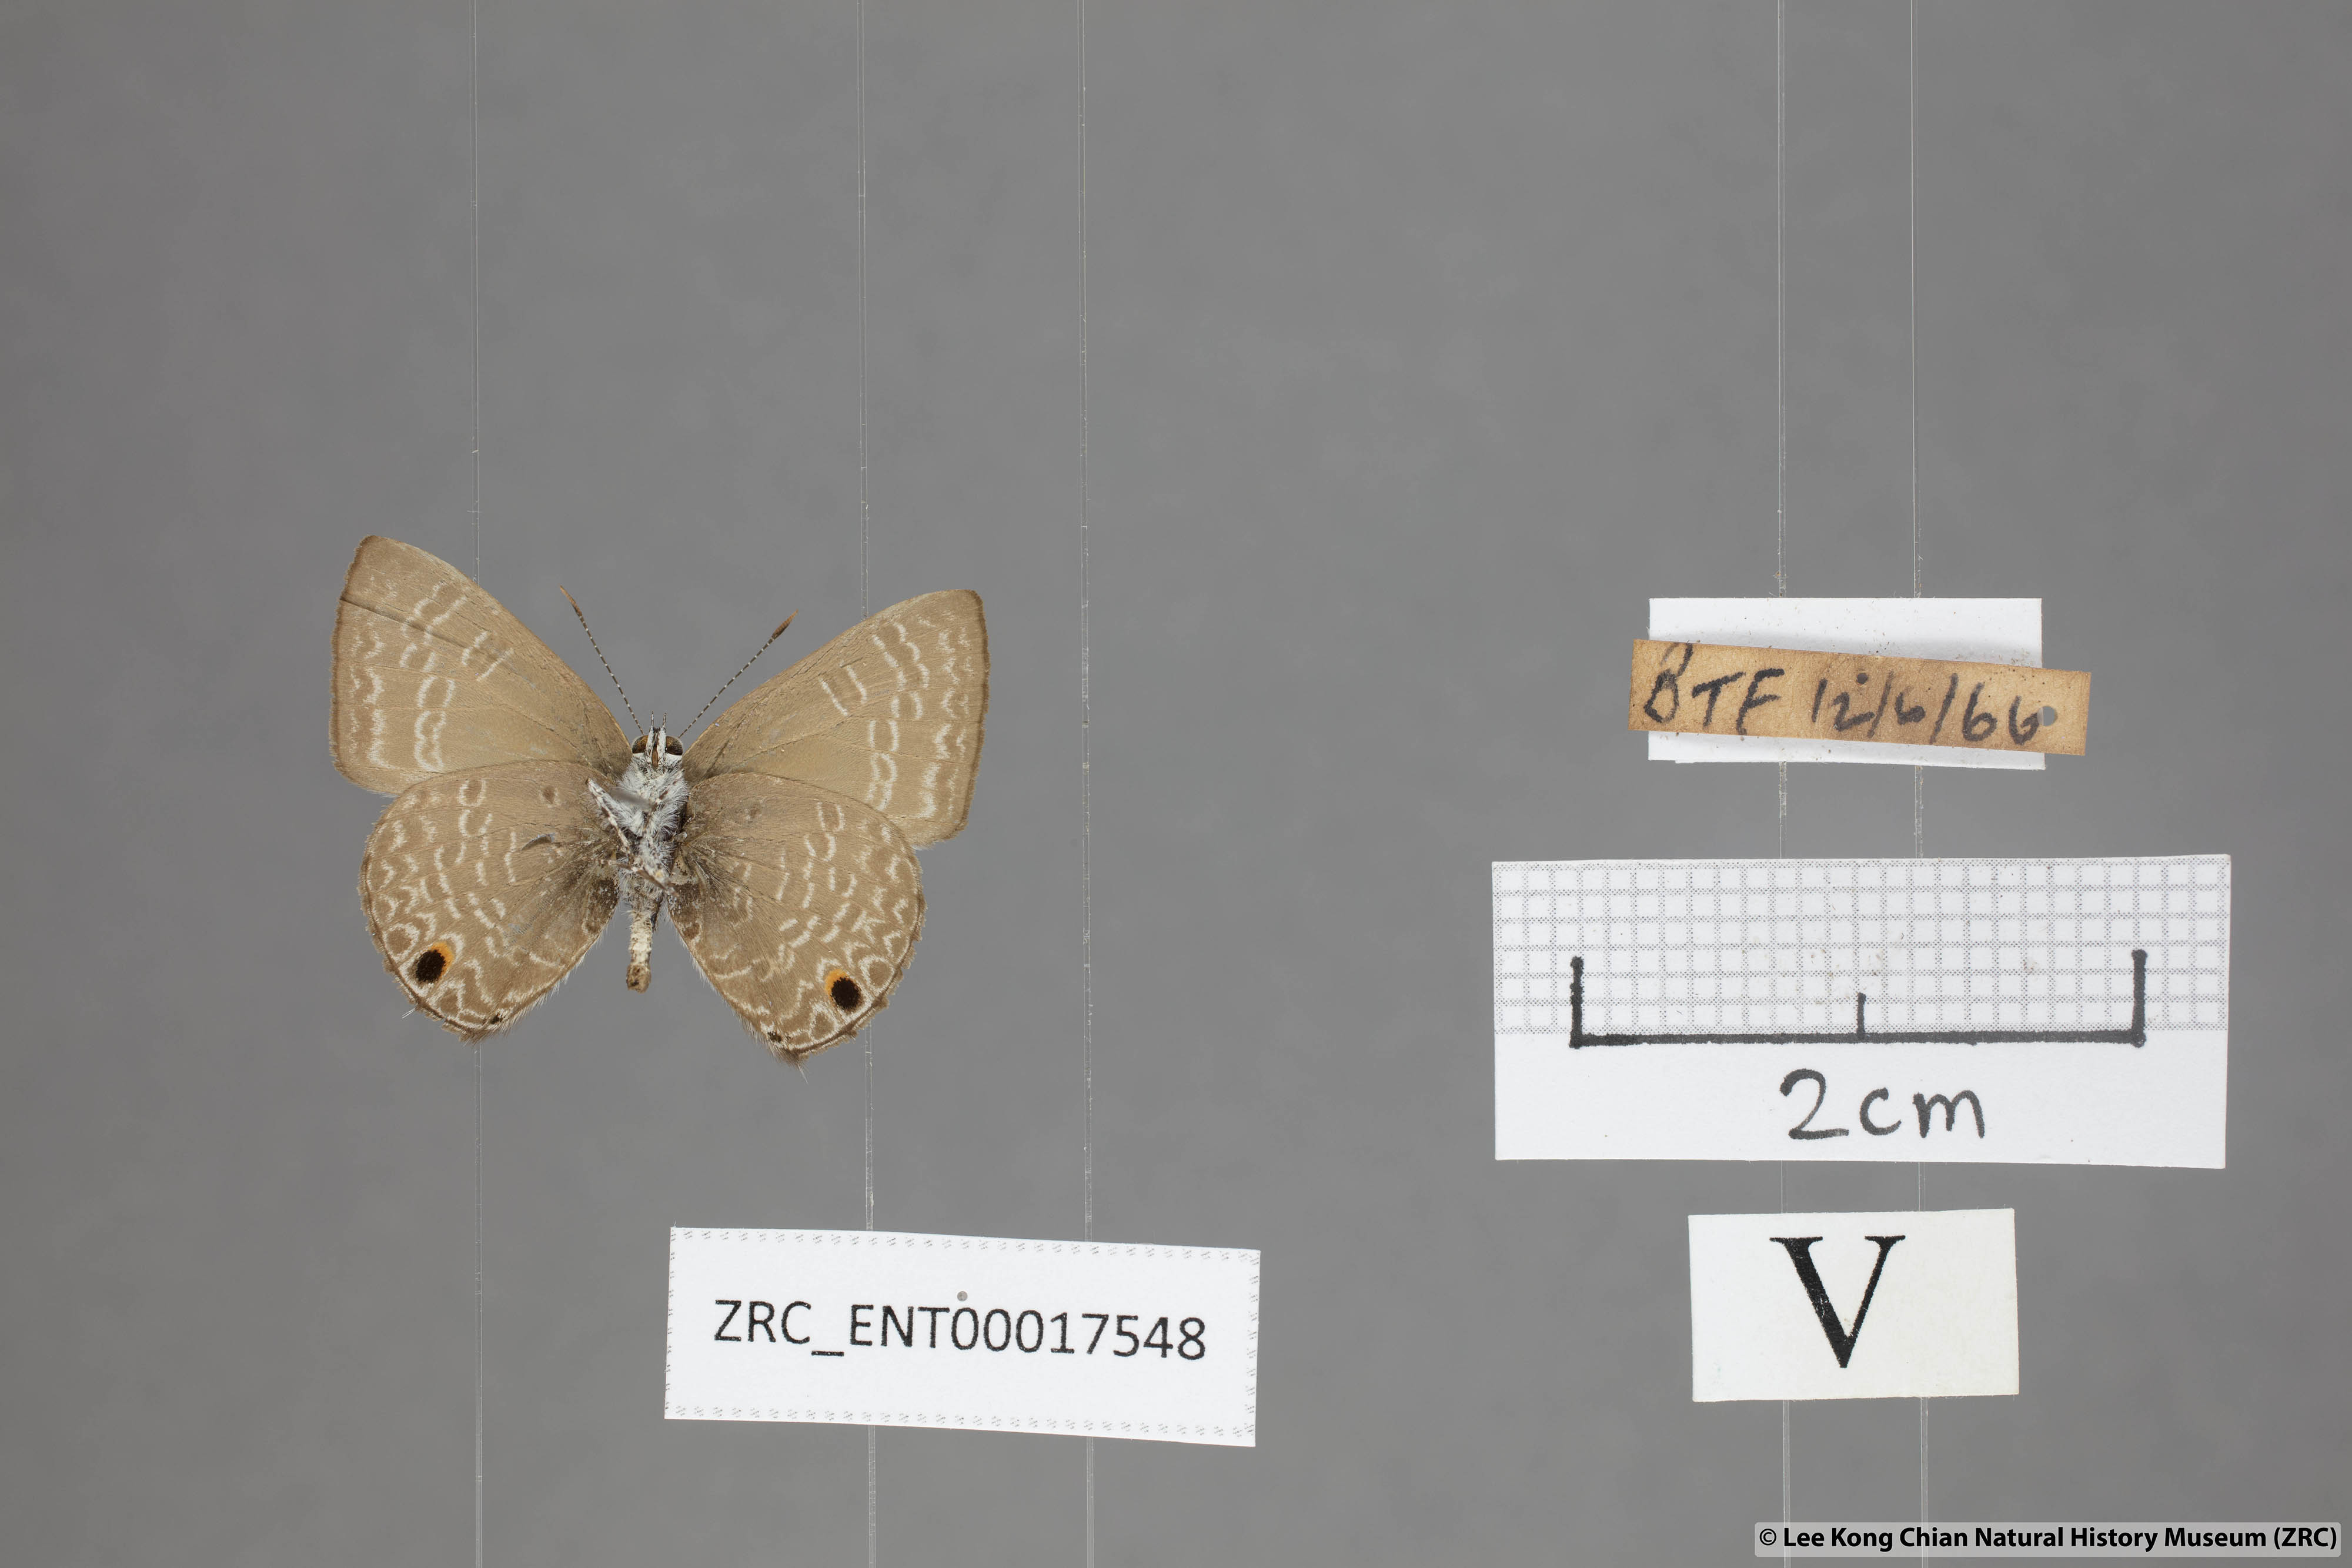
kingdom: Animalia
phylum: Arthropoda
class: Insecta
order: Lepidoptera
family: Lycaenidae
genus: Anthene
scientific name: Anthene lycaenoides
